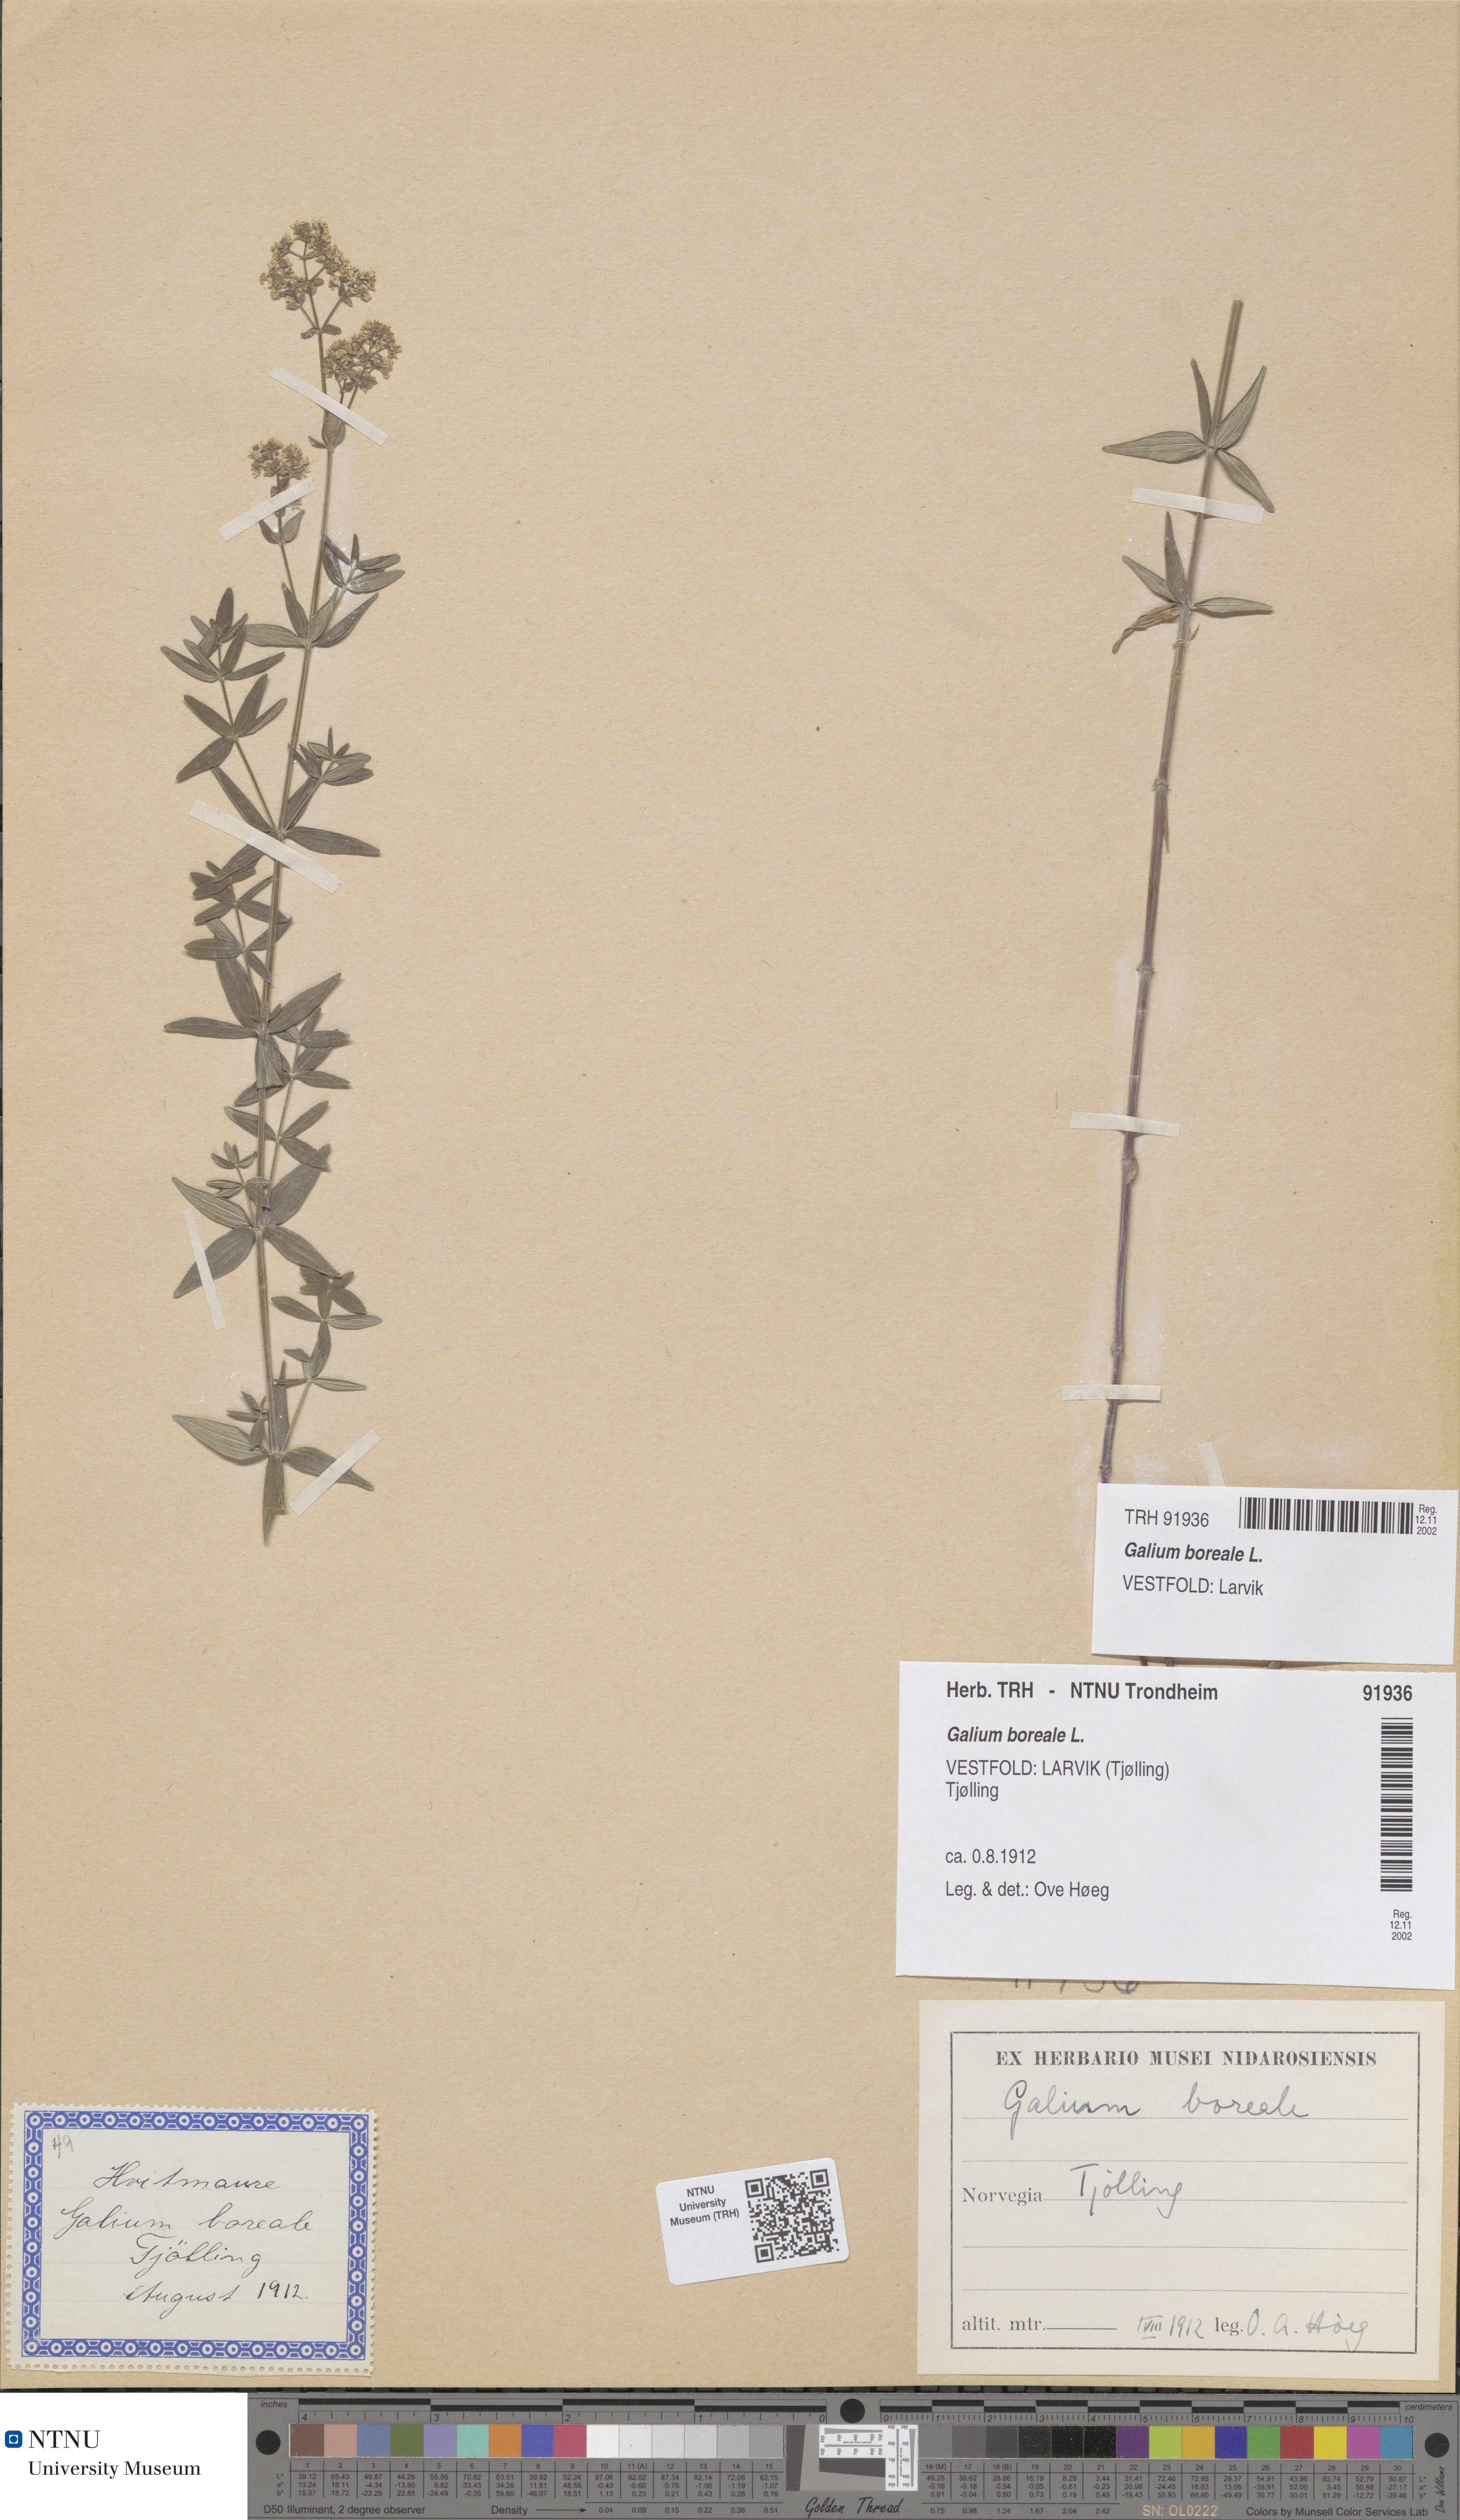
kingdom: Plantae
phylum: Tracheophyta
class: Magnoliopsida
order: Gentianales
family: Rubiaceae
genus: Galium
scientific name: Galium boreale
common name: Northern bedstraw
